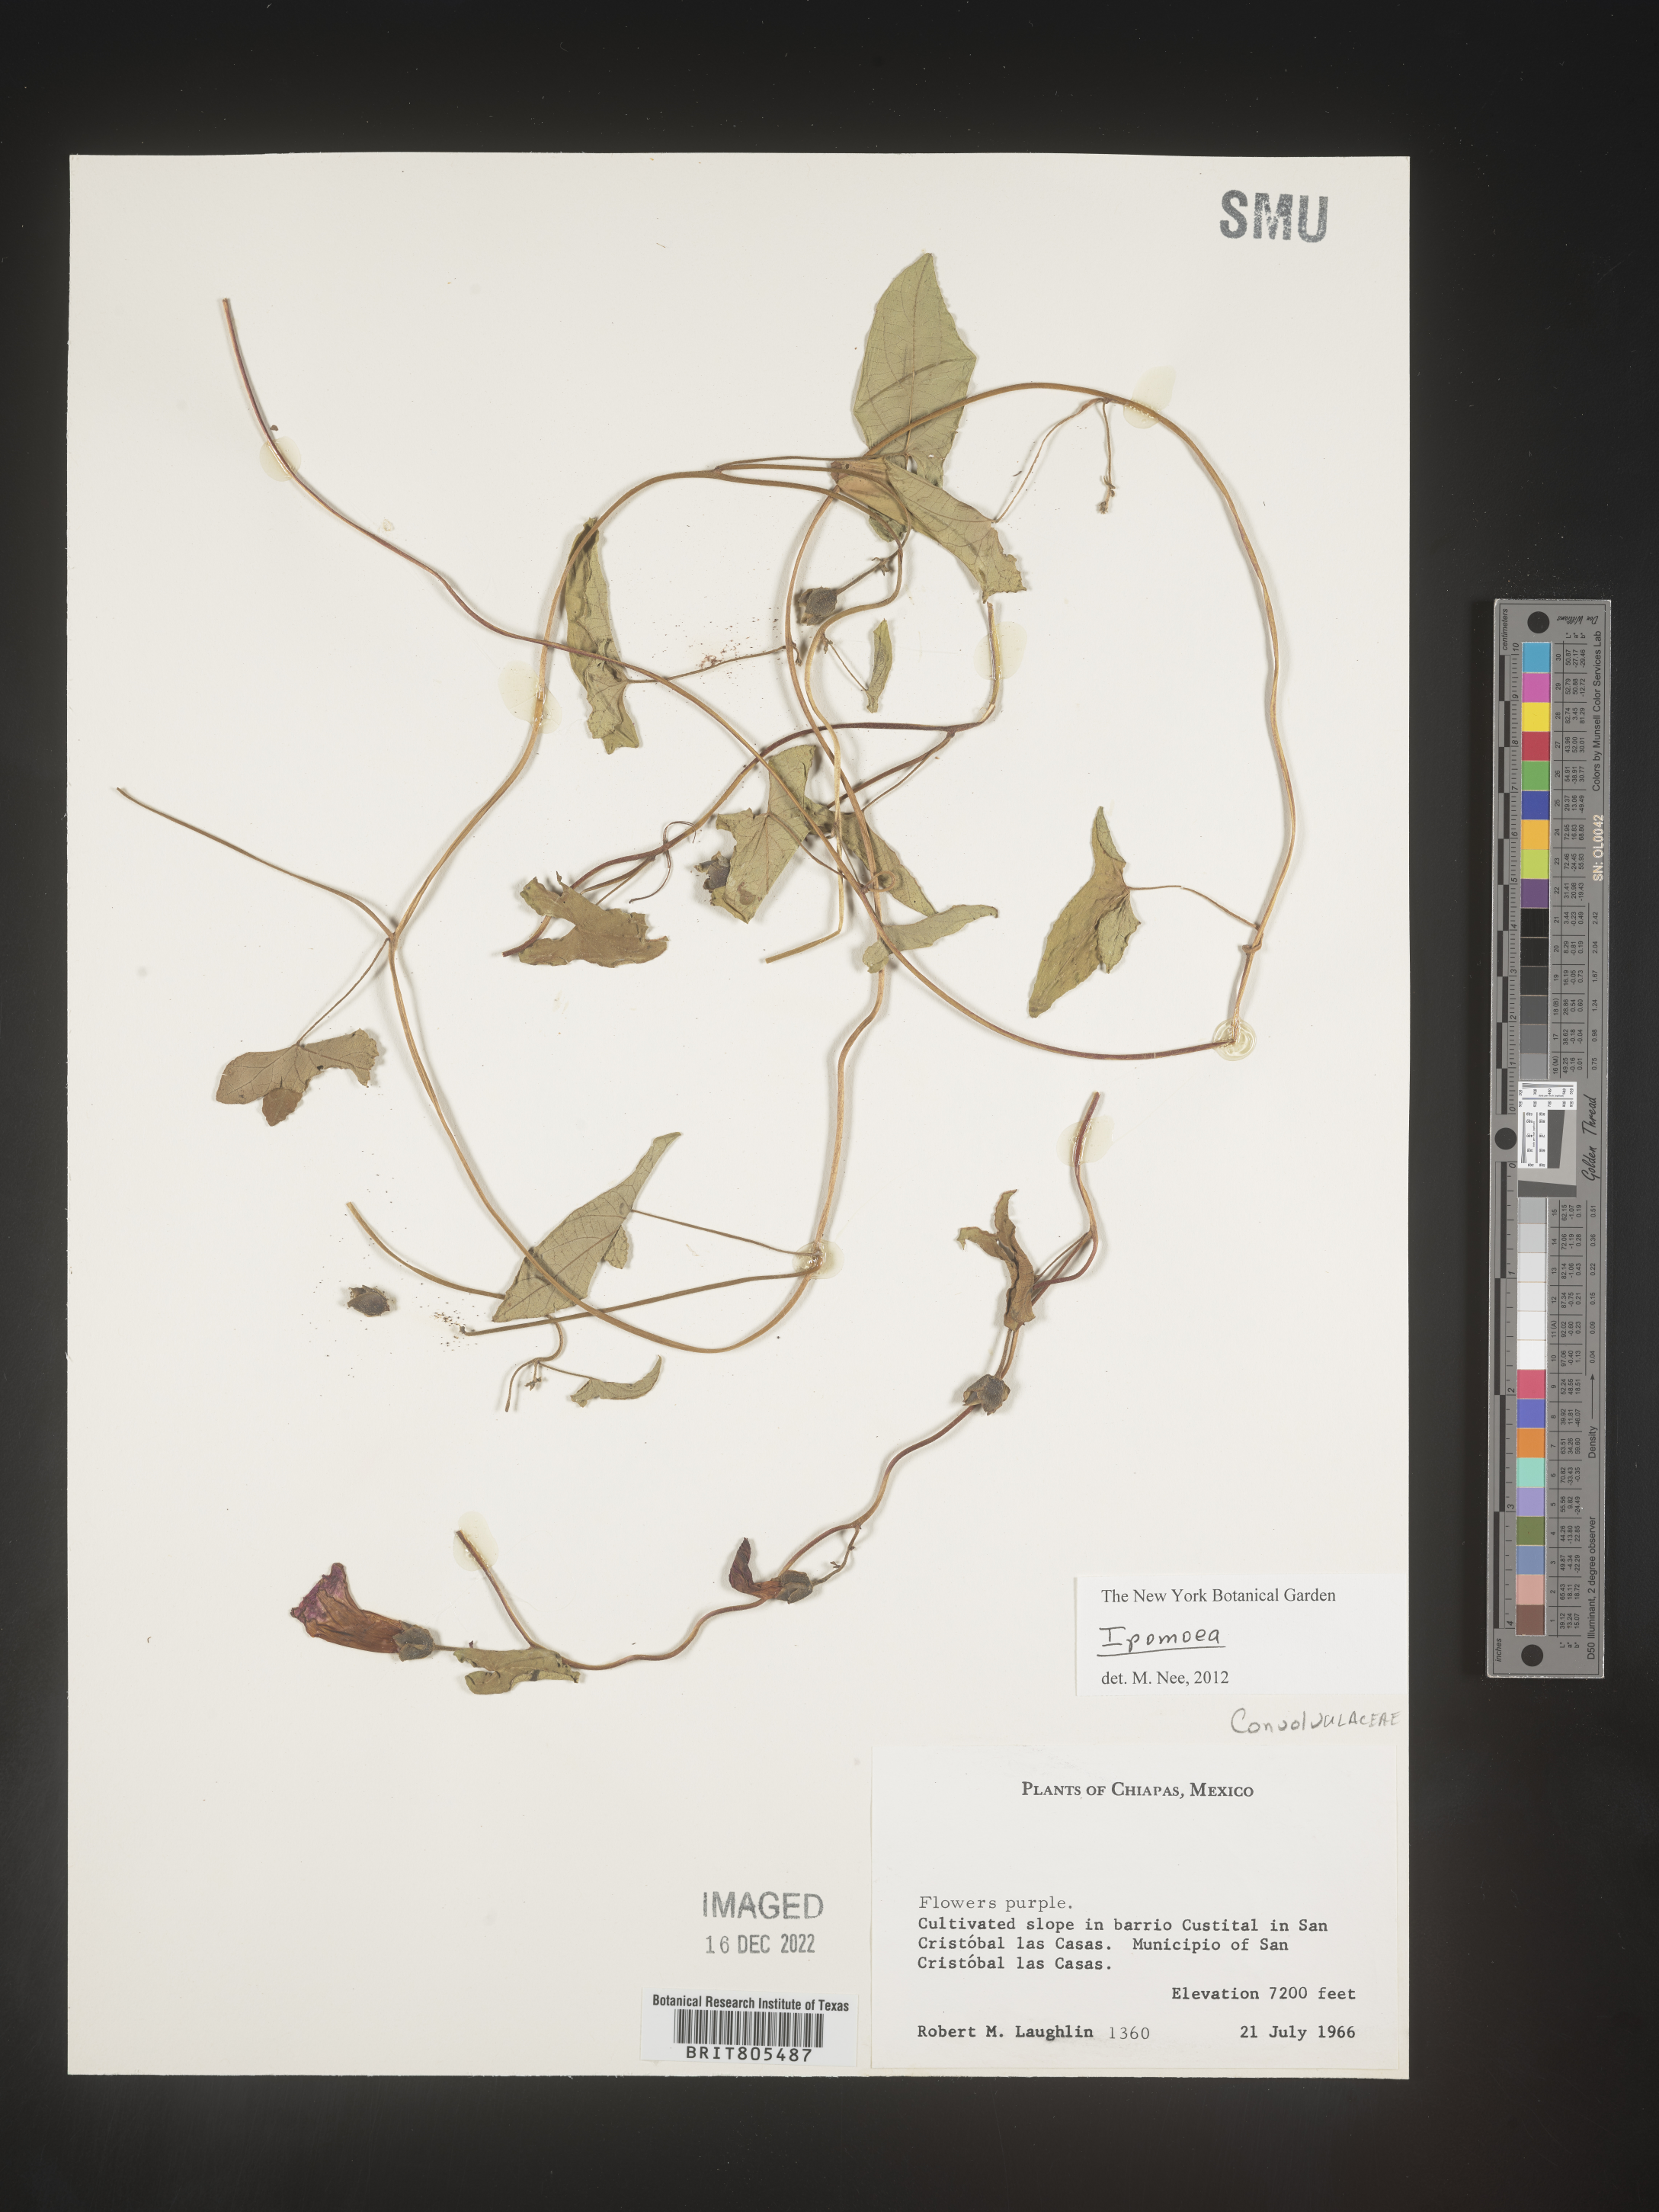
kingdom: Plantae
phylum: Tracheophyta
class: Magnoliopsida
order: Solanales
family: Convolvulaceae
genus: Ipomoea
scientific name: Ipomoea
